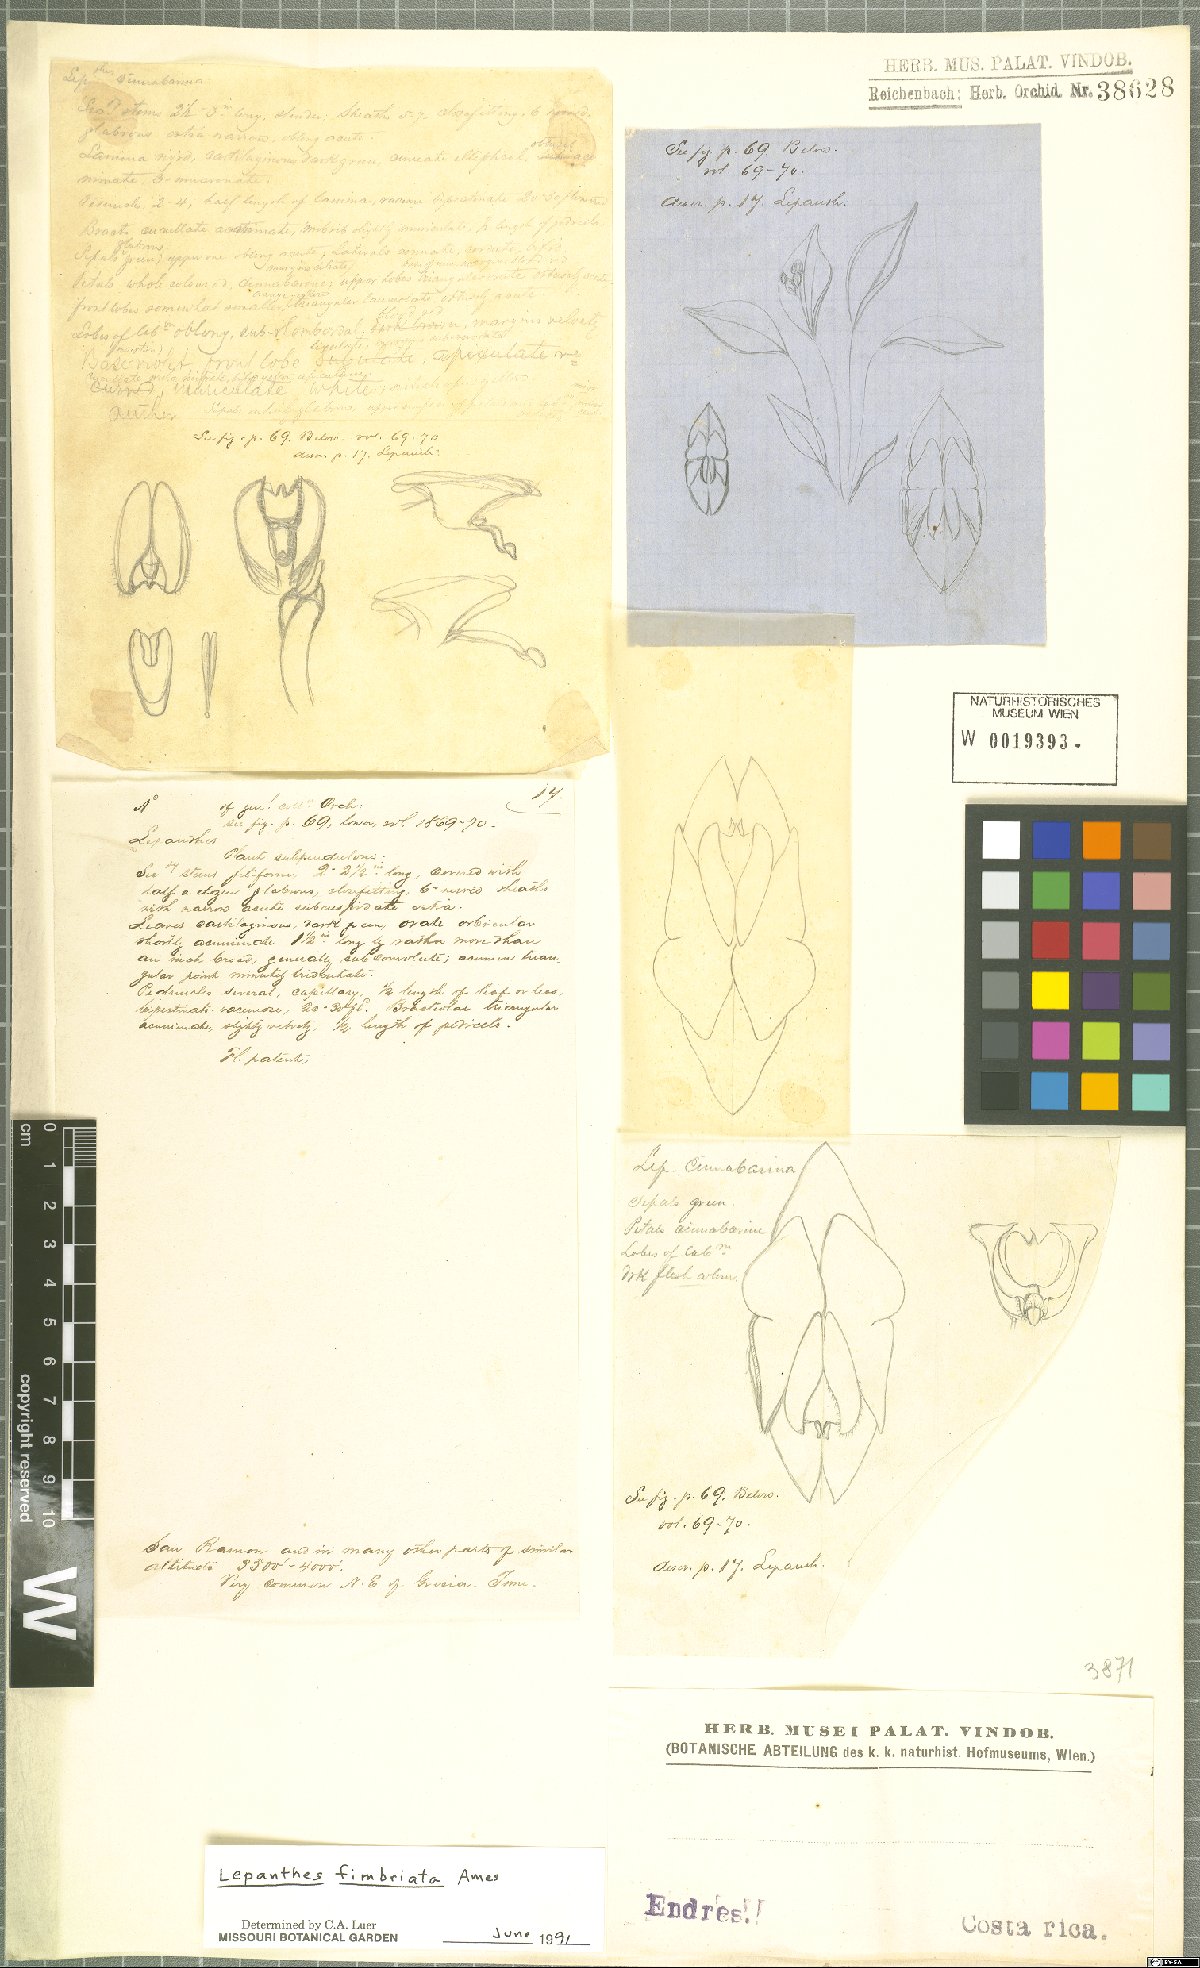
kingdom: Plantae
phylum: Tracheophyta
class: Liliopsida
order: Asparagales
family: Orchidaceae
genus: Lepanthes
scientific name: Lepanthes fimbriata
